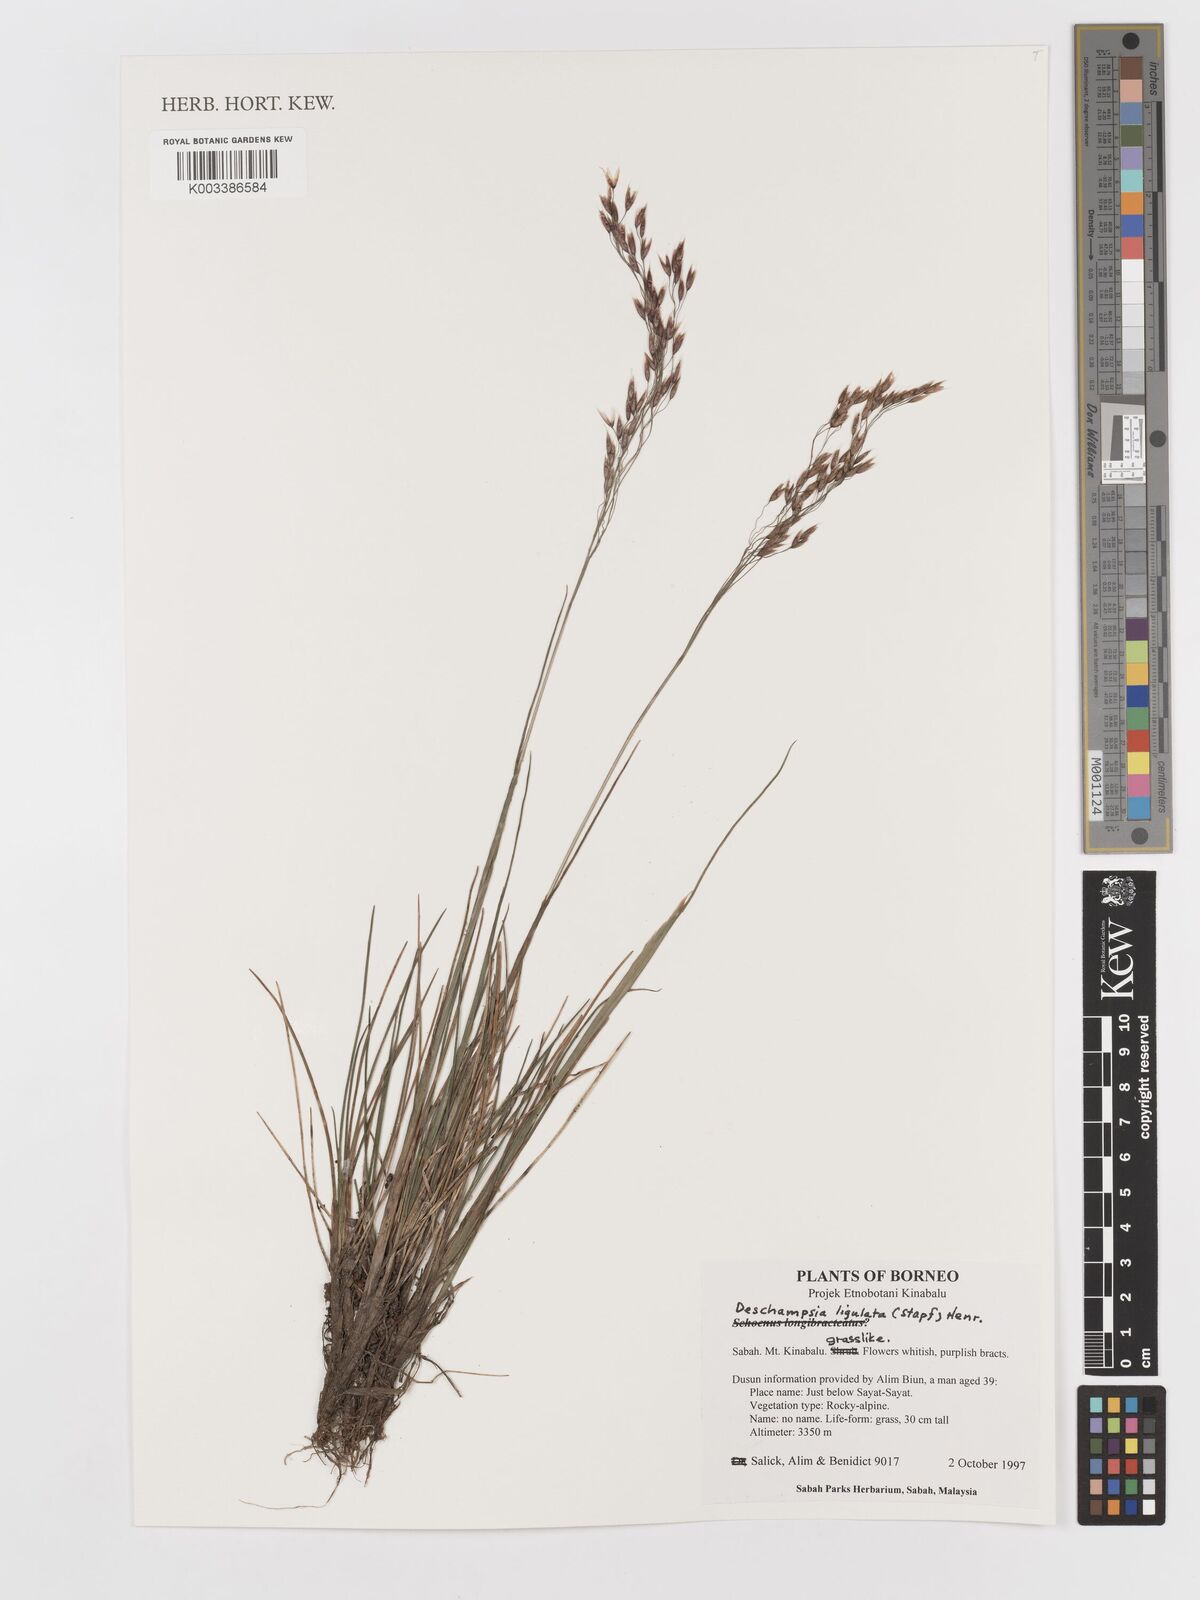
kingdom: Plantae
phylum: Tracheophyta
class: Liliopsida
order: Poales
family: Poaceae
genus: Avenella
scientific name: Avenella flexuosa
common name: Wavy hairgrass
